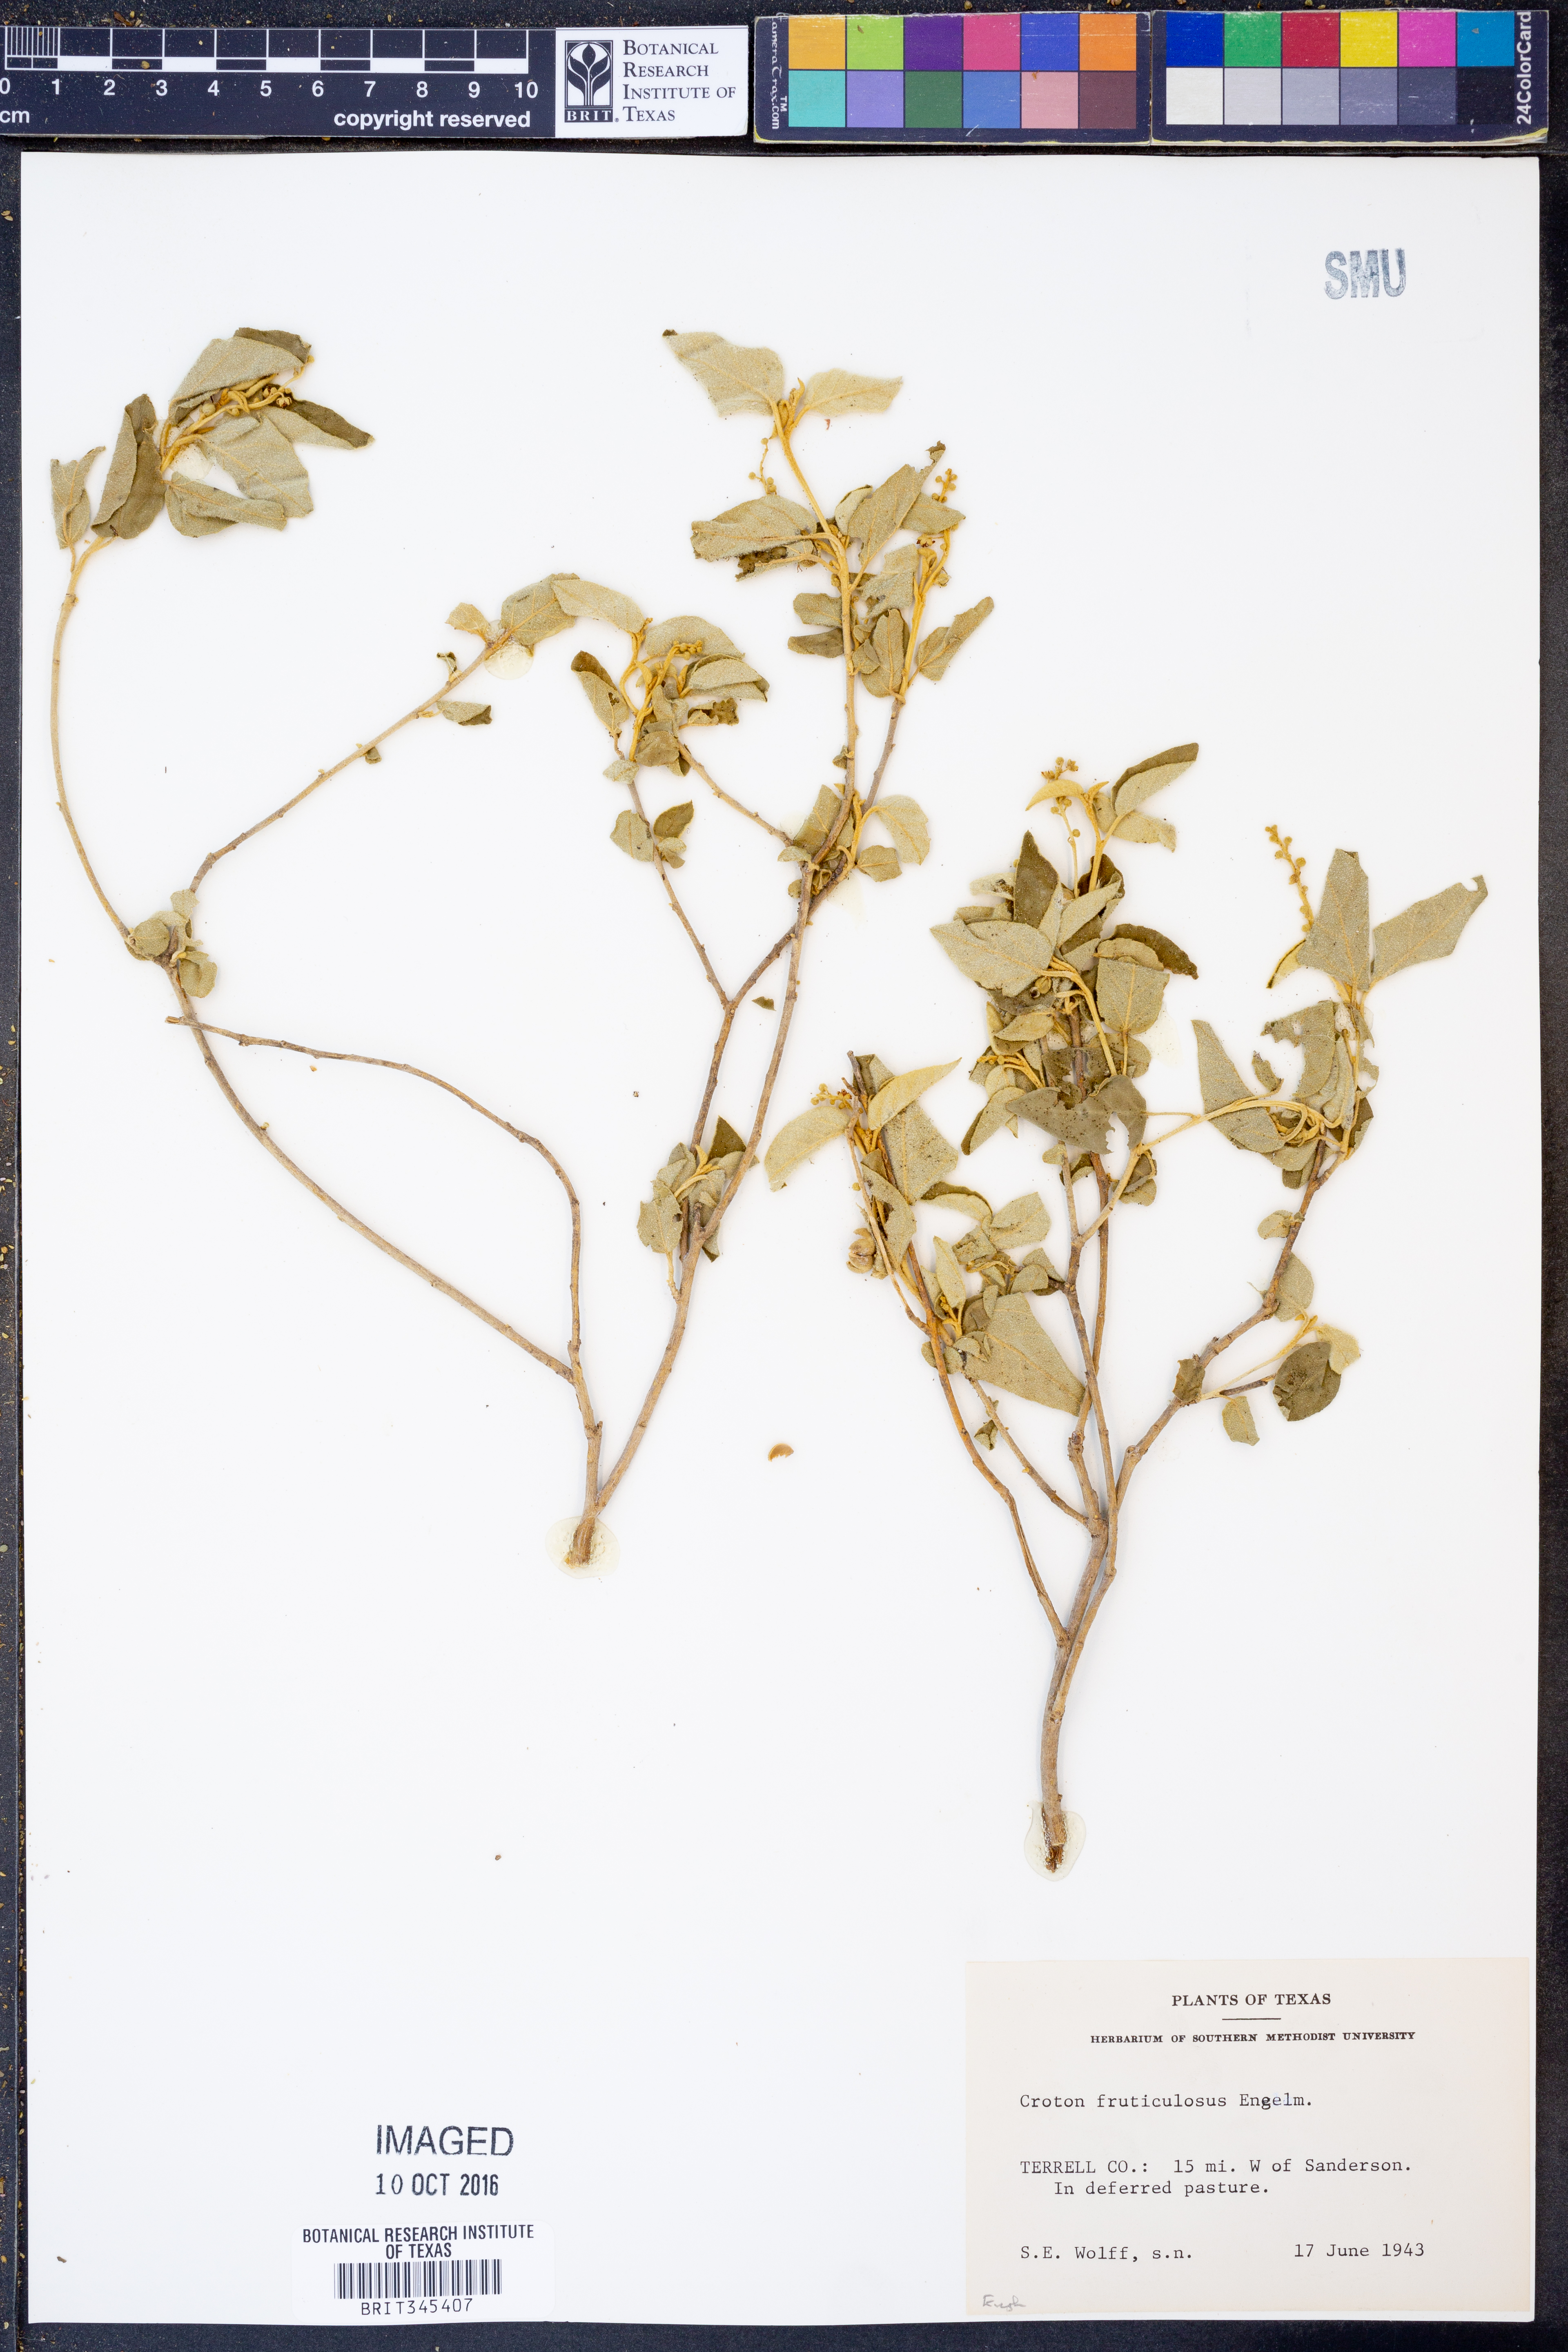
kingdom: Plantae
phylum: Tracheophyta
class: Magnoliopsida
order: Malpighiales
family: Euphorbiaceae
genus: Croton
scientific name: Croton fruticulosus
